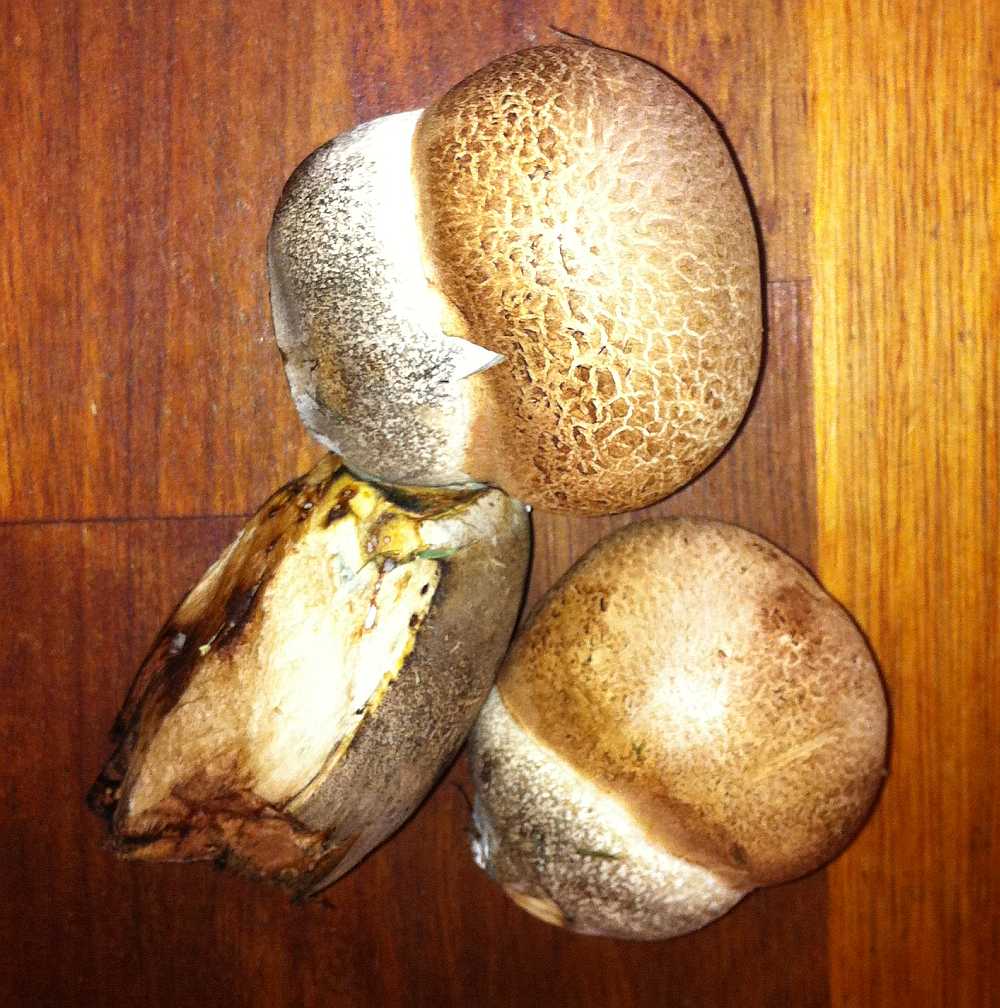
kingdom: Fungi
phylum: Basidiomycota
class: Agaricomycetes
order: Boletales
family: Boletaceae
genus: Leccinum
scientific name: Leccinum duriusculum
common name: poppel-skælrørhat
